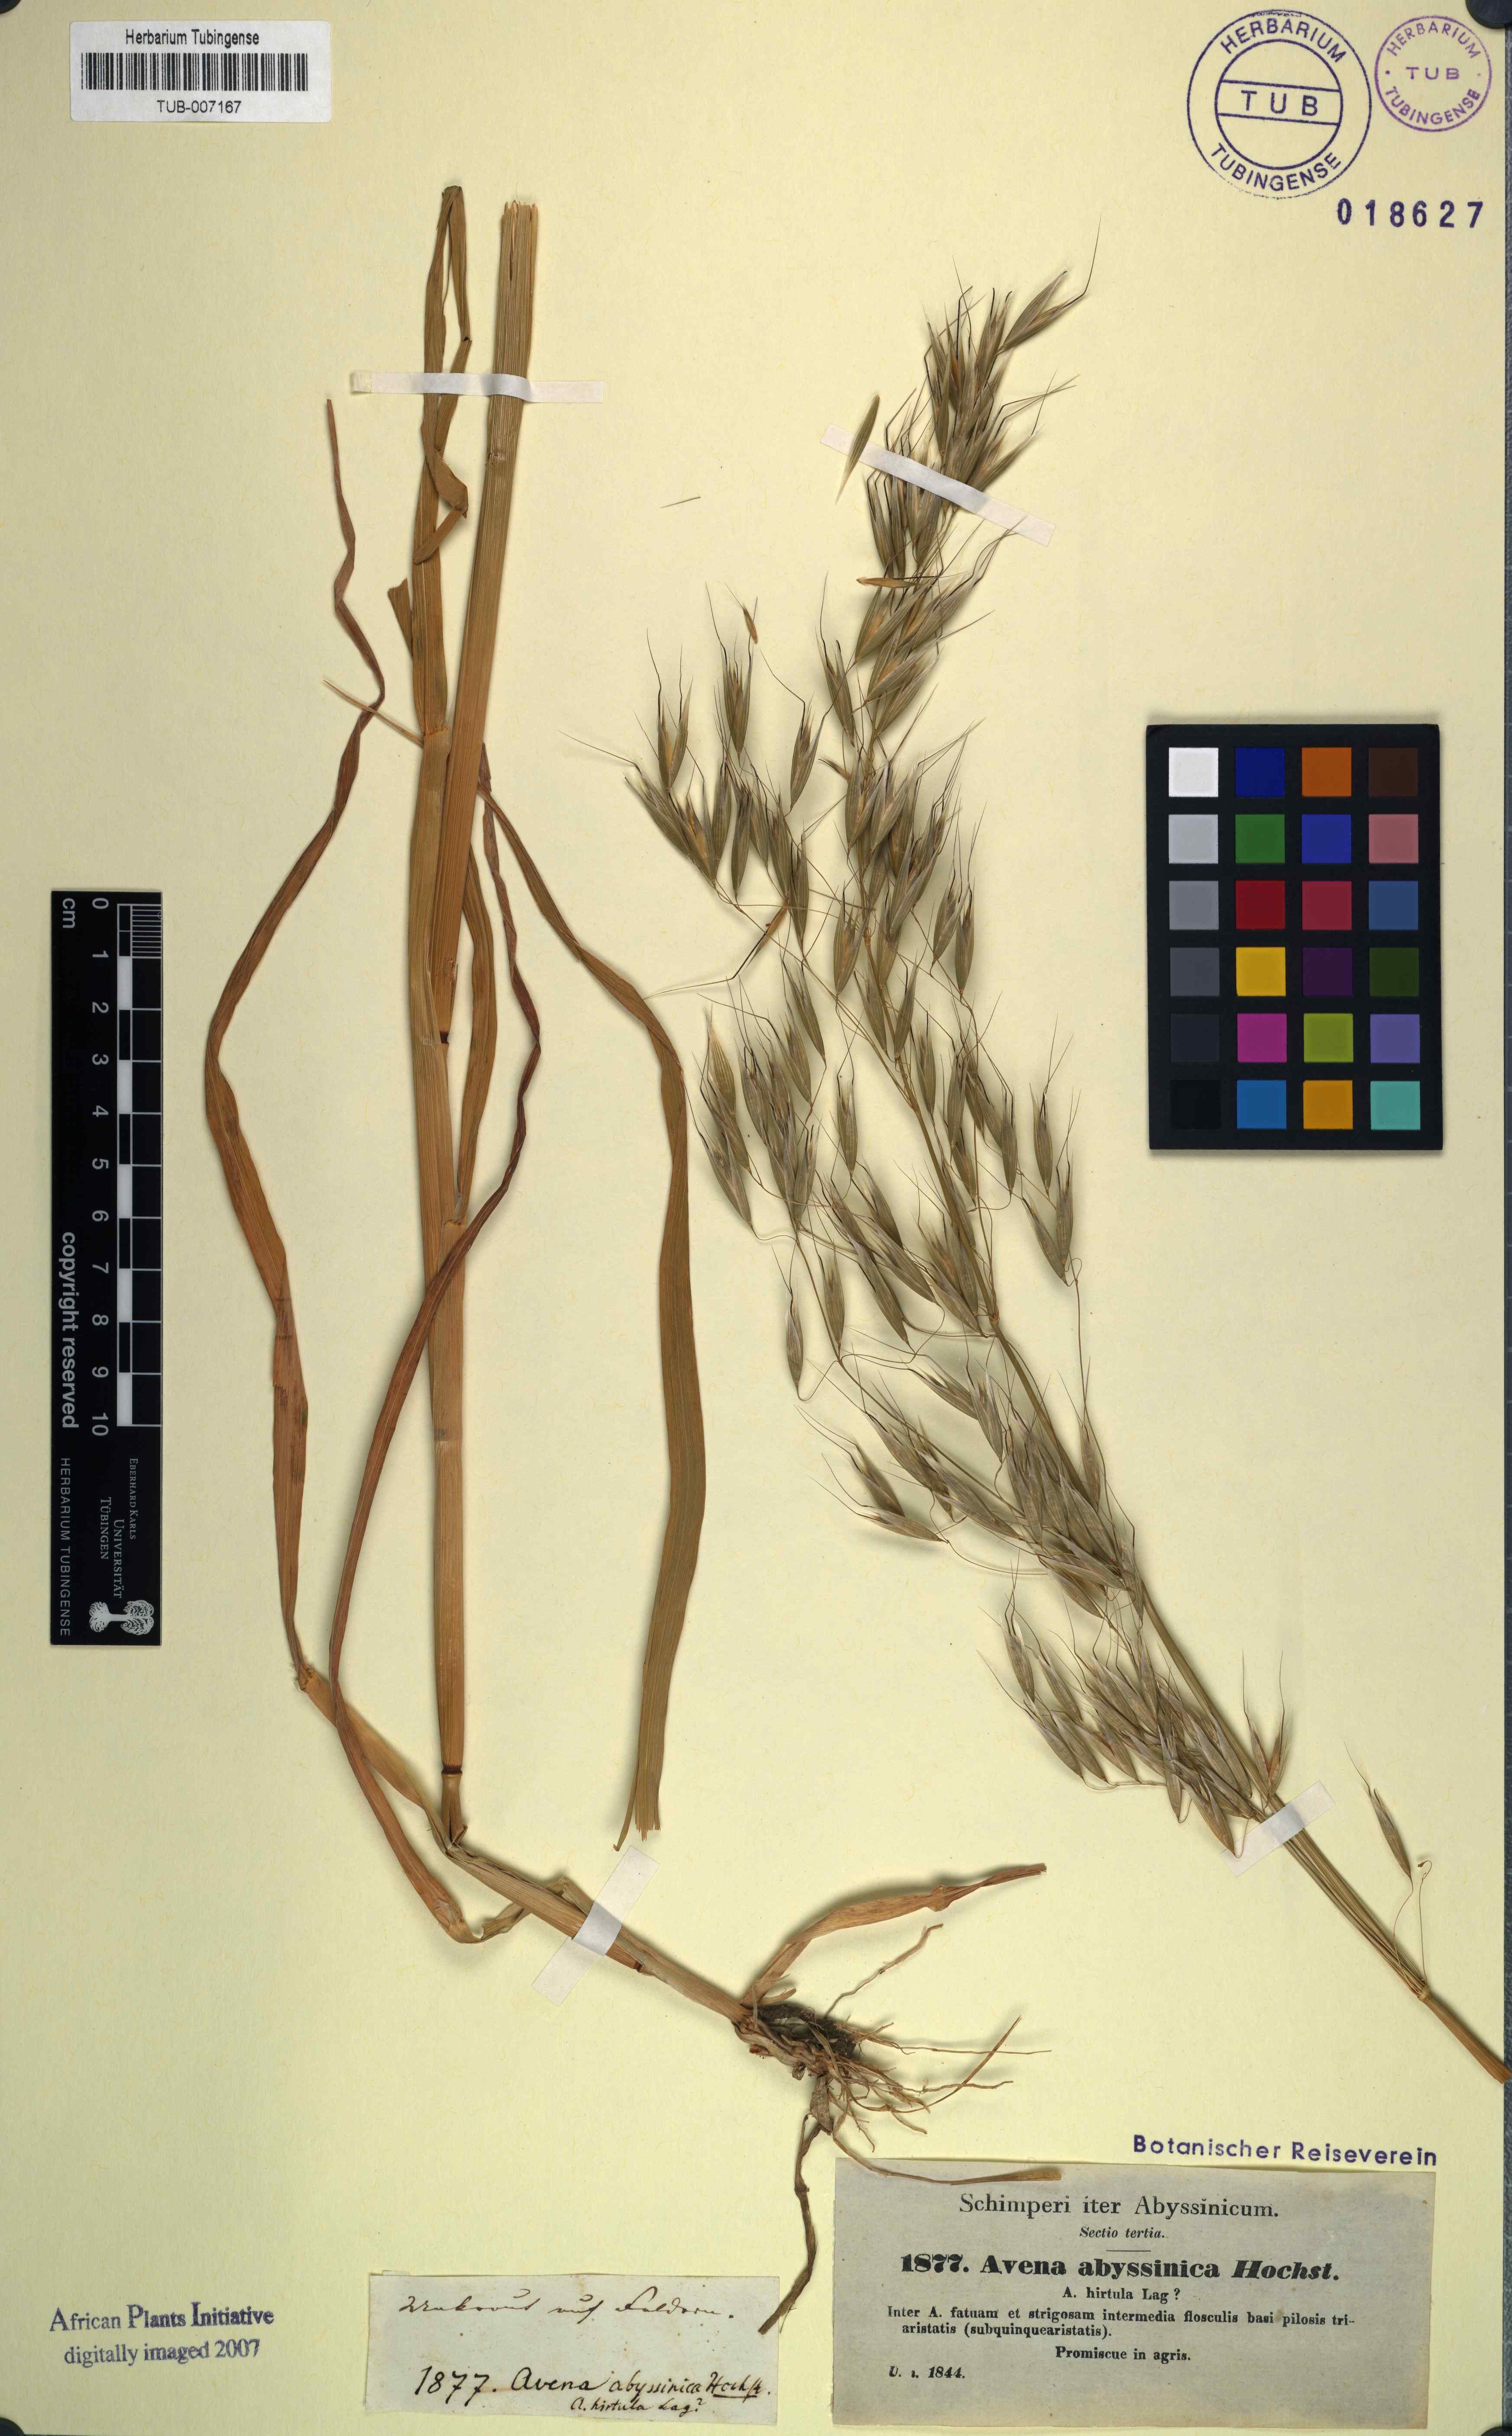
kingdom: Plantae
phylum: Tracheophyta
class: Liliopsida
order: Poales
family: Poaceae
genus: Avena
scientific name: Avena abyssinica
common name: Ethiopian oat
